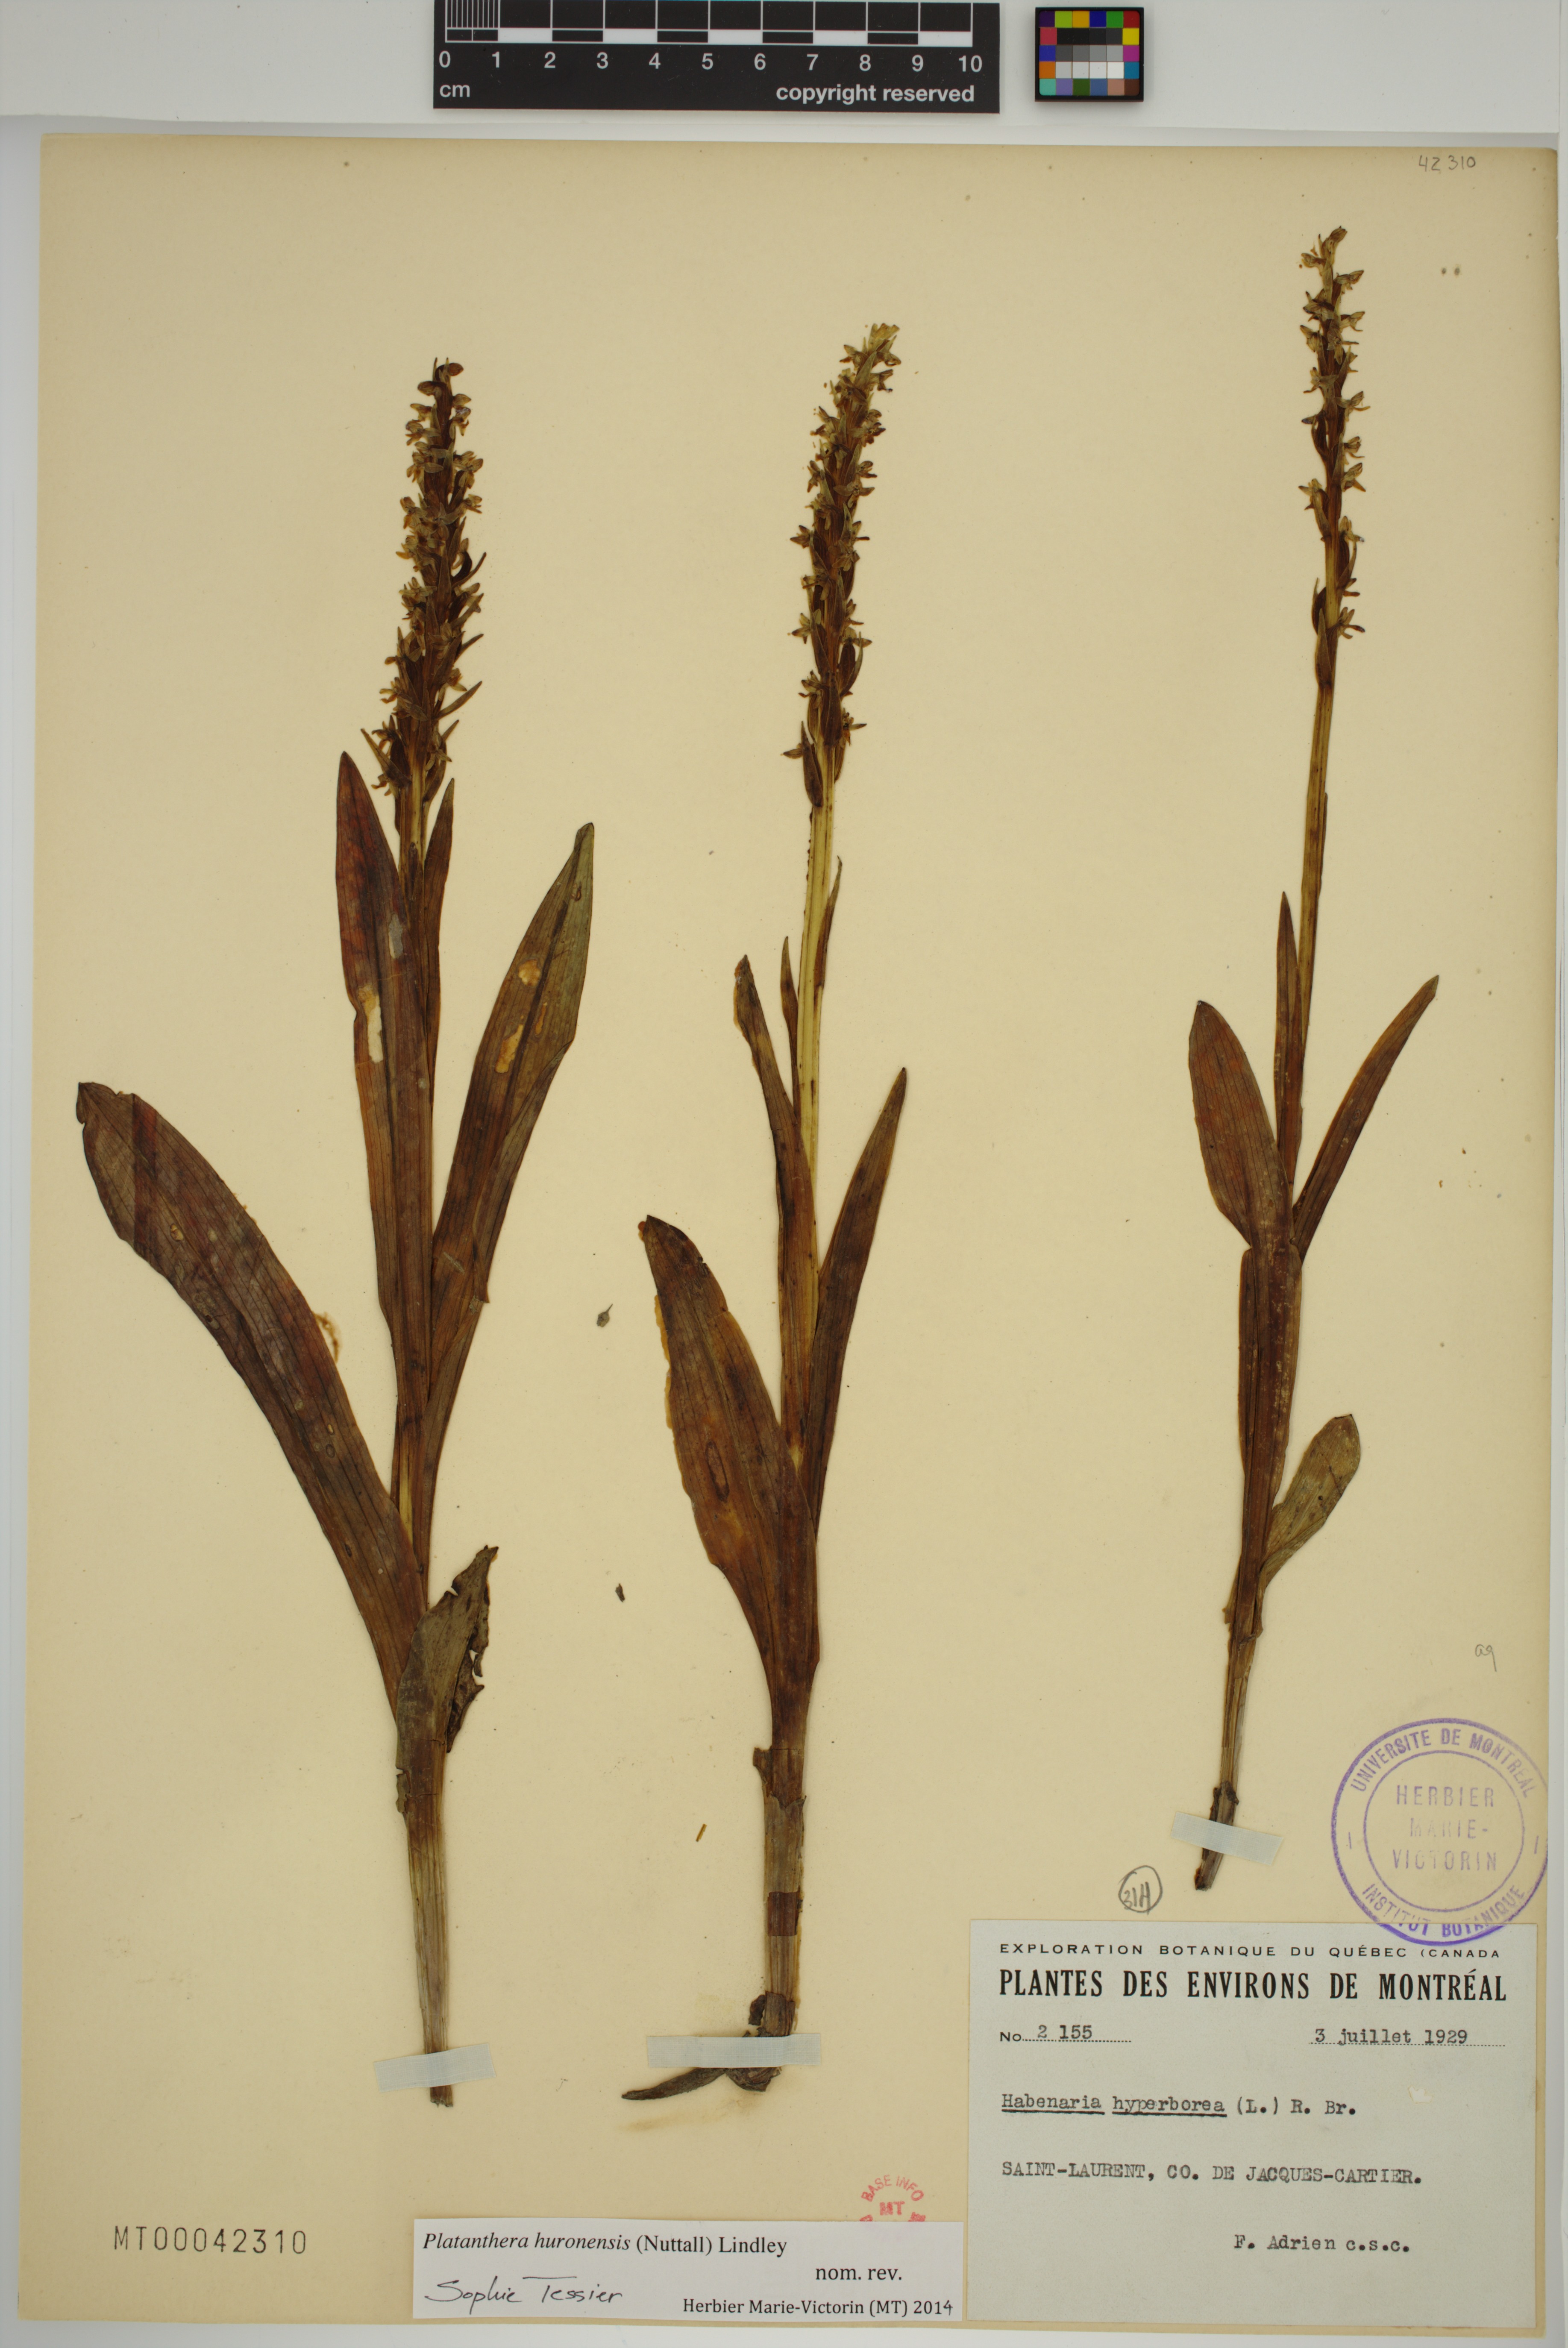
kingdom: Plantae
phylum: Tracheophyta
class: Liliopsida
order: Asparagales
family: Orchidaceae
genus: Platanthera
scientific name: Platanthera huronensis
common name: Fragrant green orchid
